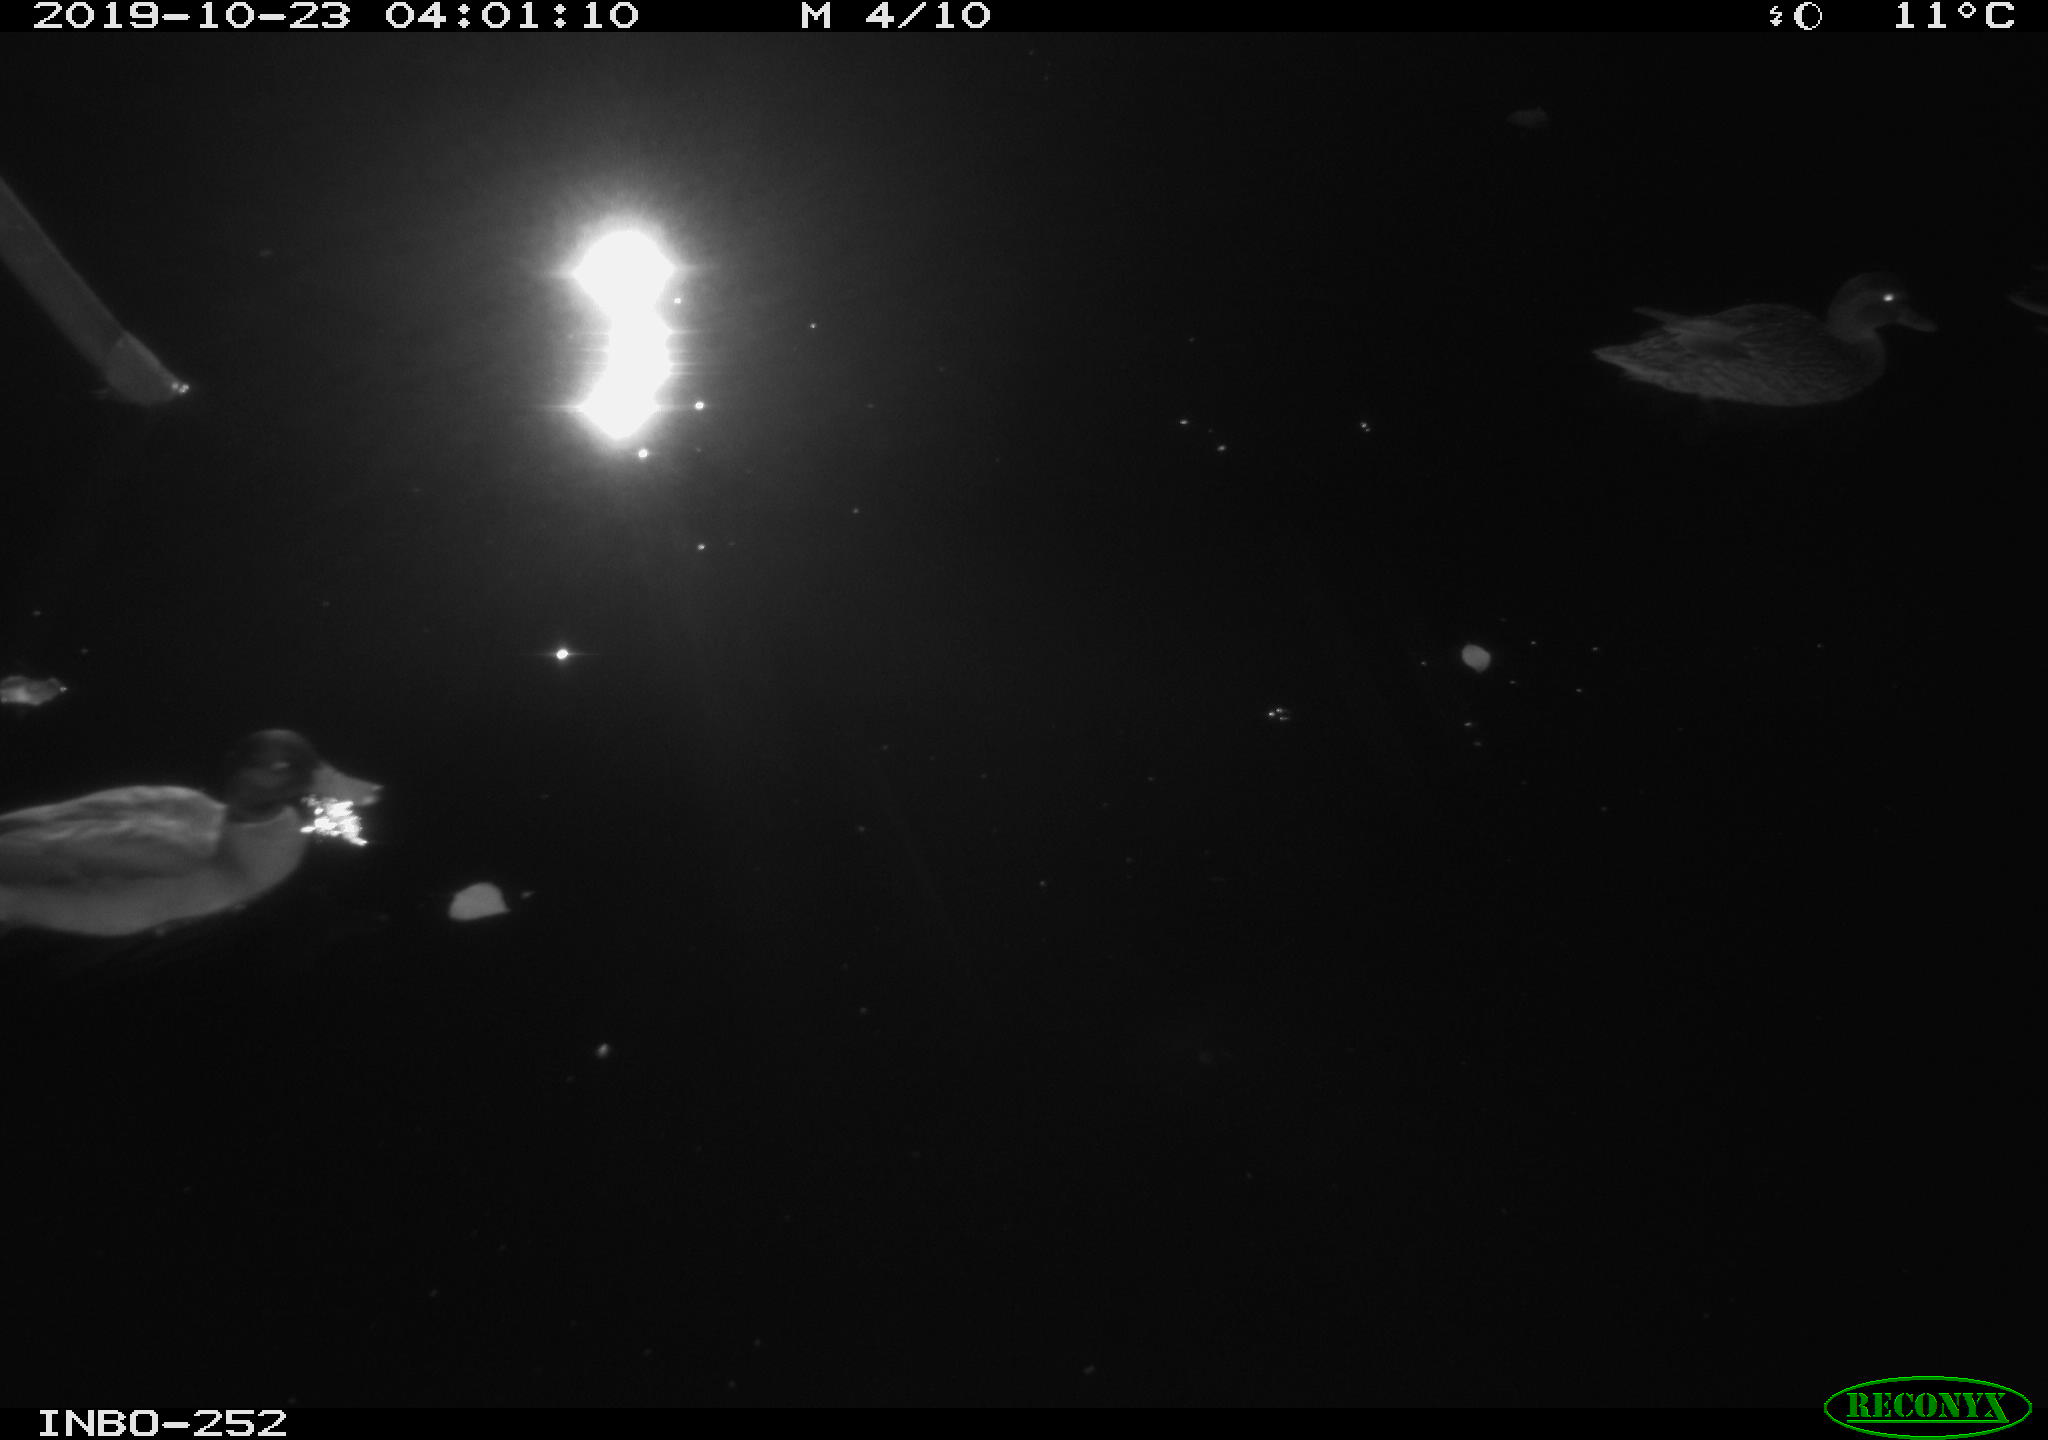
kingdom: Animalia
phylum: Chordata
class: Aves
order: Anseriformes
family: Anatidae
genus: Anas
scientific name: Anas platyrhynchos
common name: Mallard
